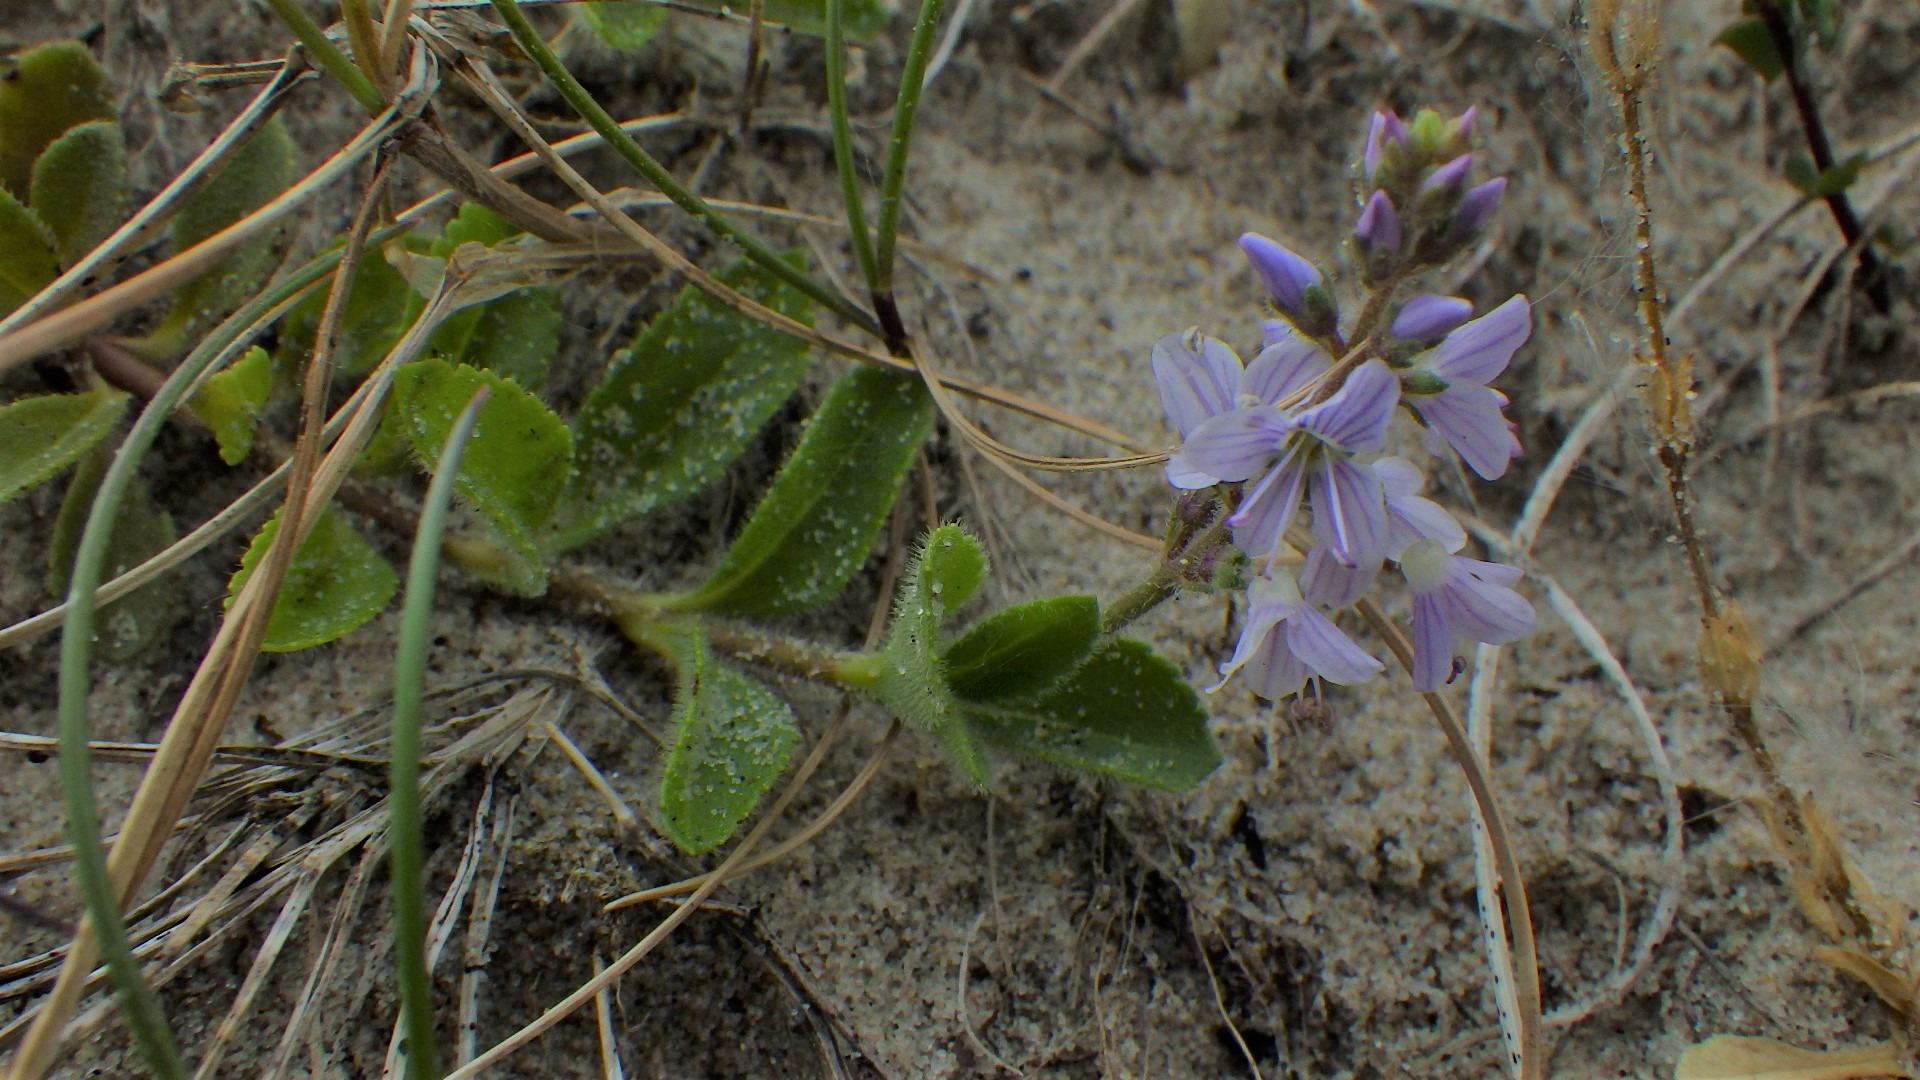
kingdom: Plantae
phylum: Tracheophyta
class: Magnoliopsida
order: Lamiales
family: Plantaginaceae
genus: Veronica
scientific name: Veronica officinalis
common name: Læge-ærenpris
